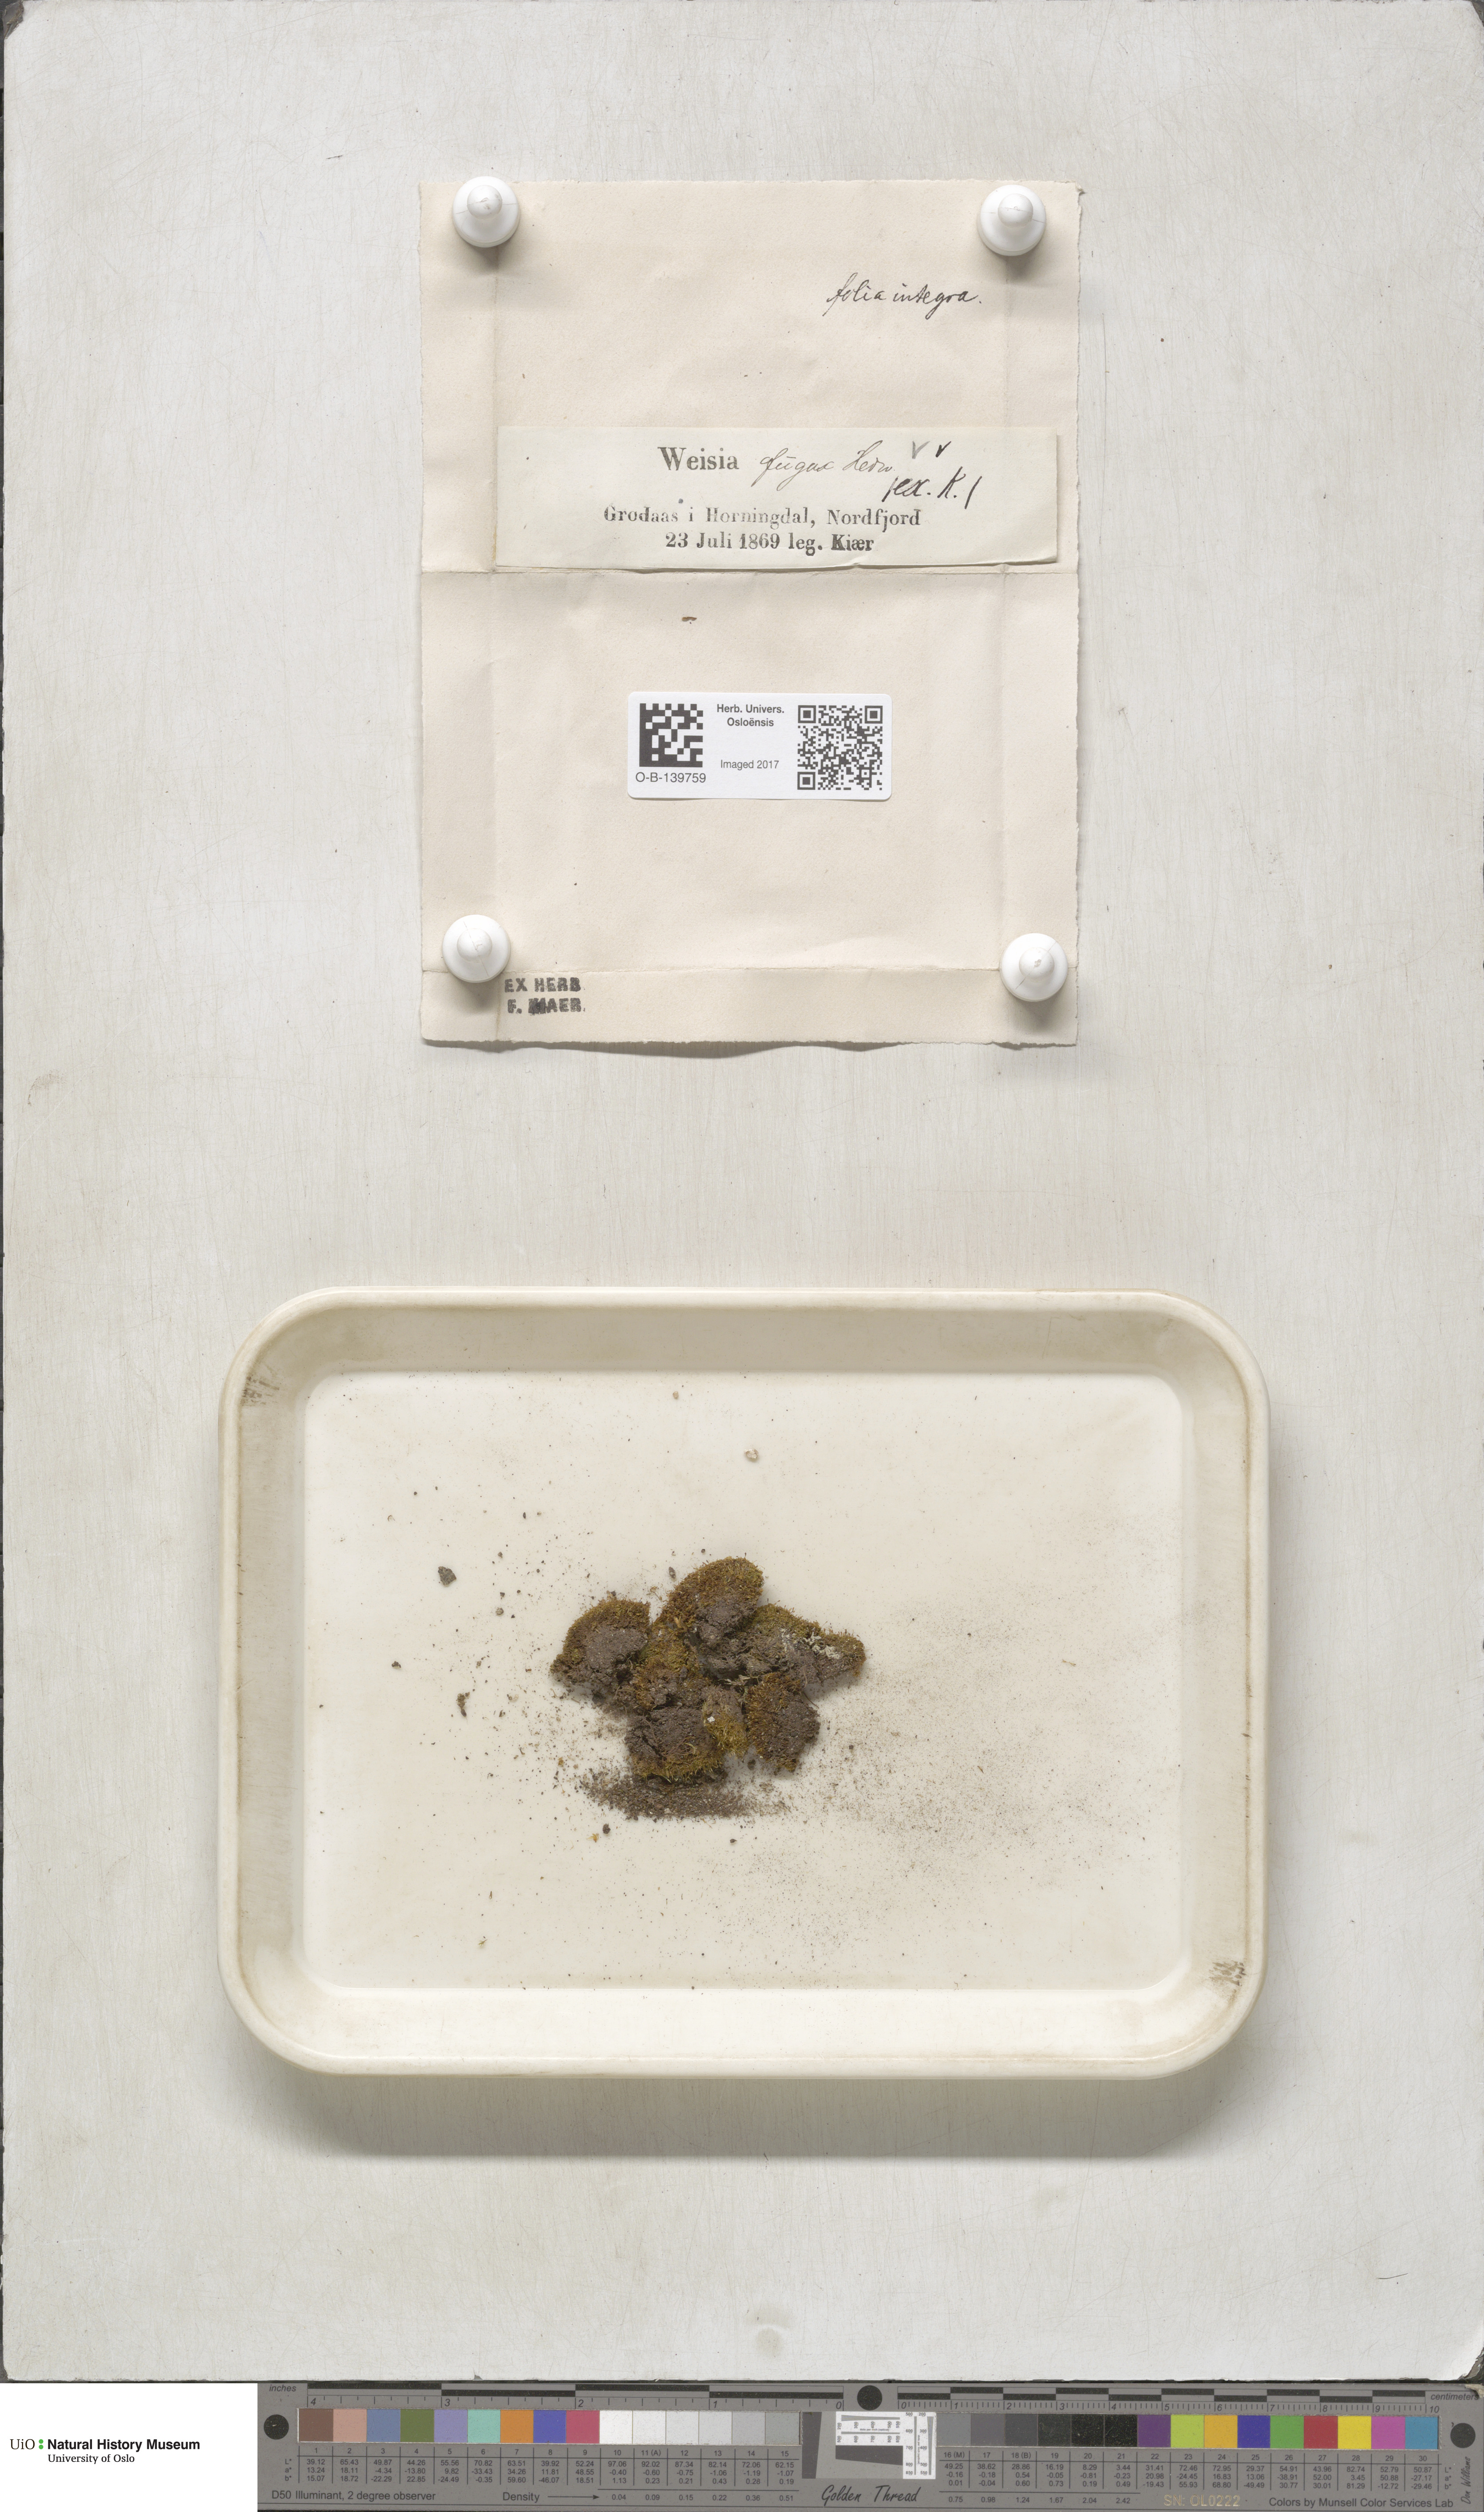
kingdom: Plantae
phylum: Bryophyta
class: Bryopsida
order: Dicranales
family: Rhabdoweisiaceae
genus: Rhabdoweisia
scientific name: Rhabdoweisia fugax
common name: Dwarf streak-moss
